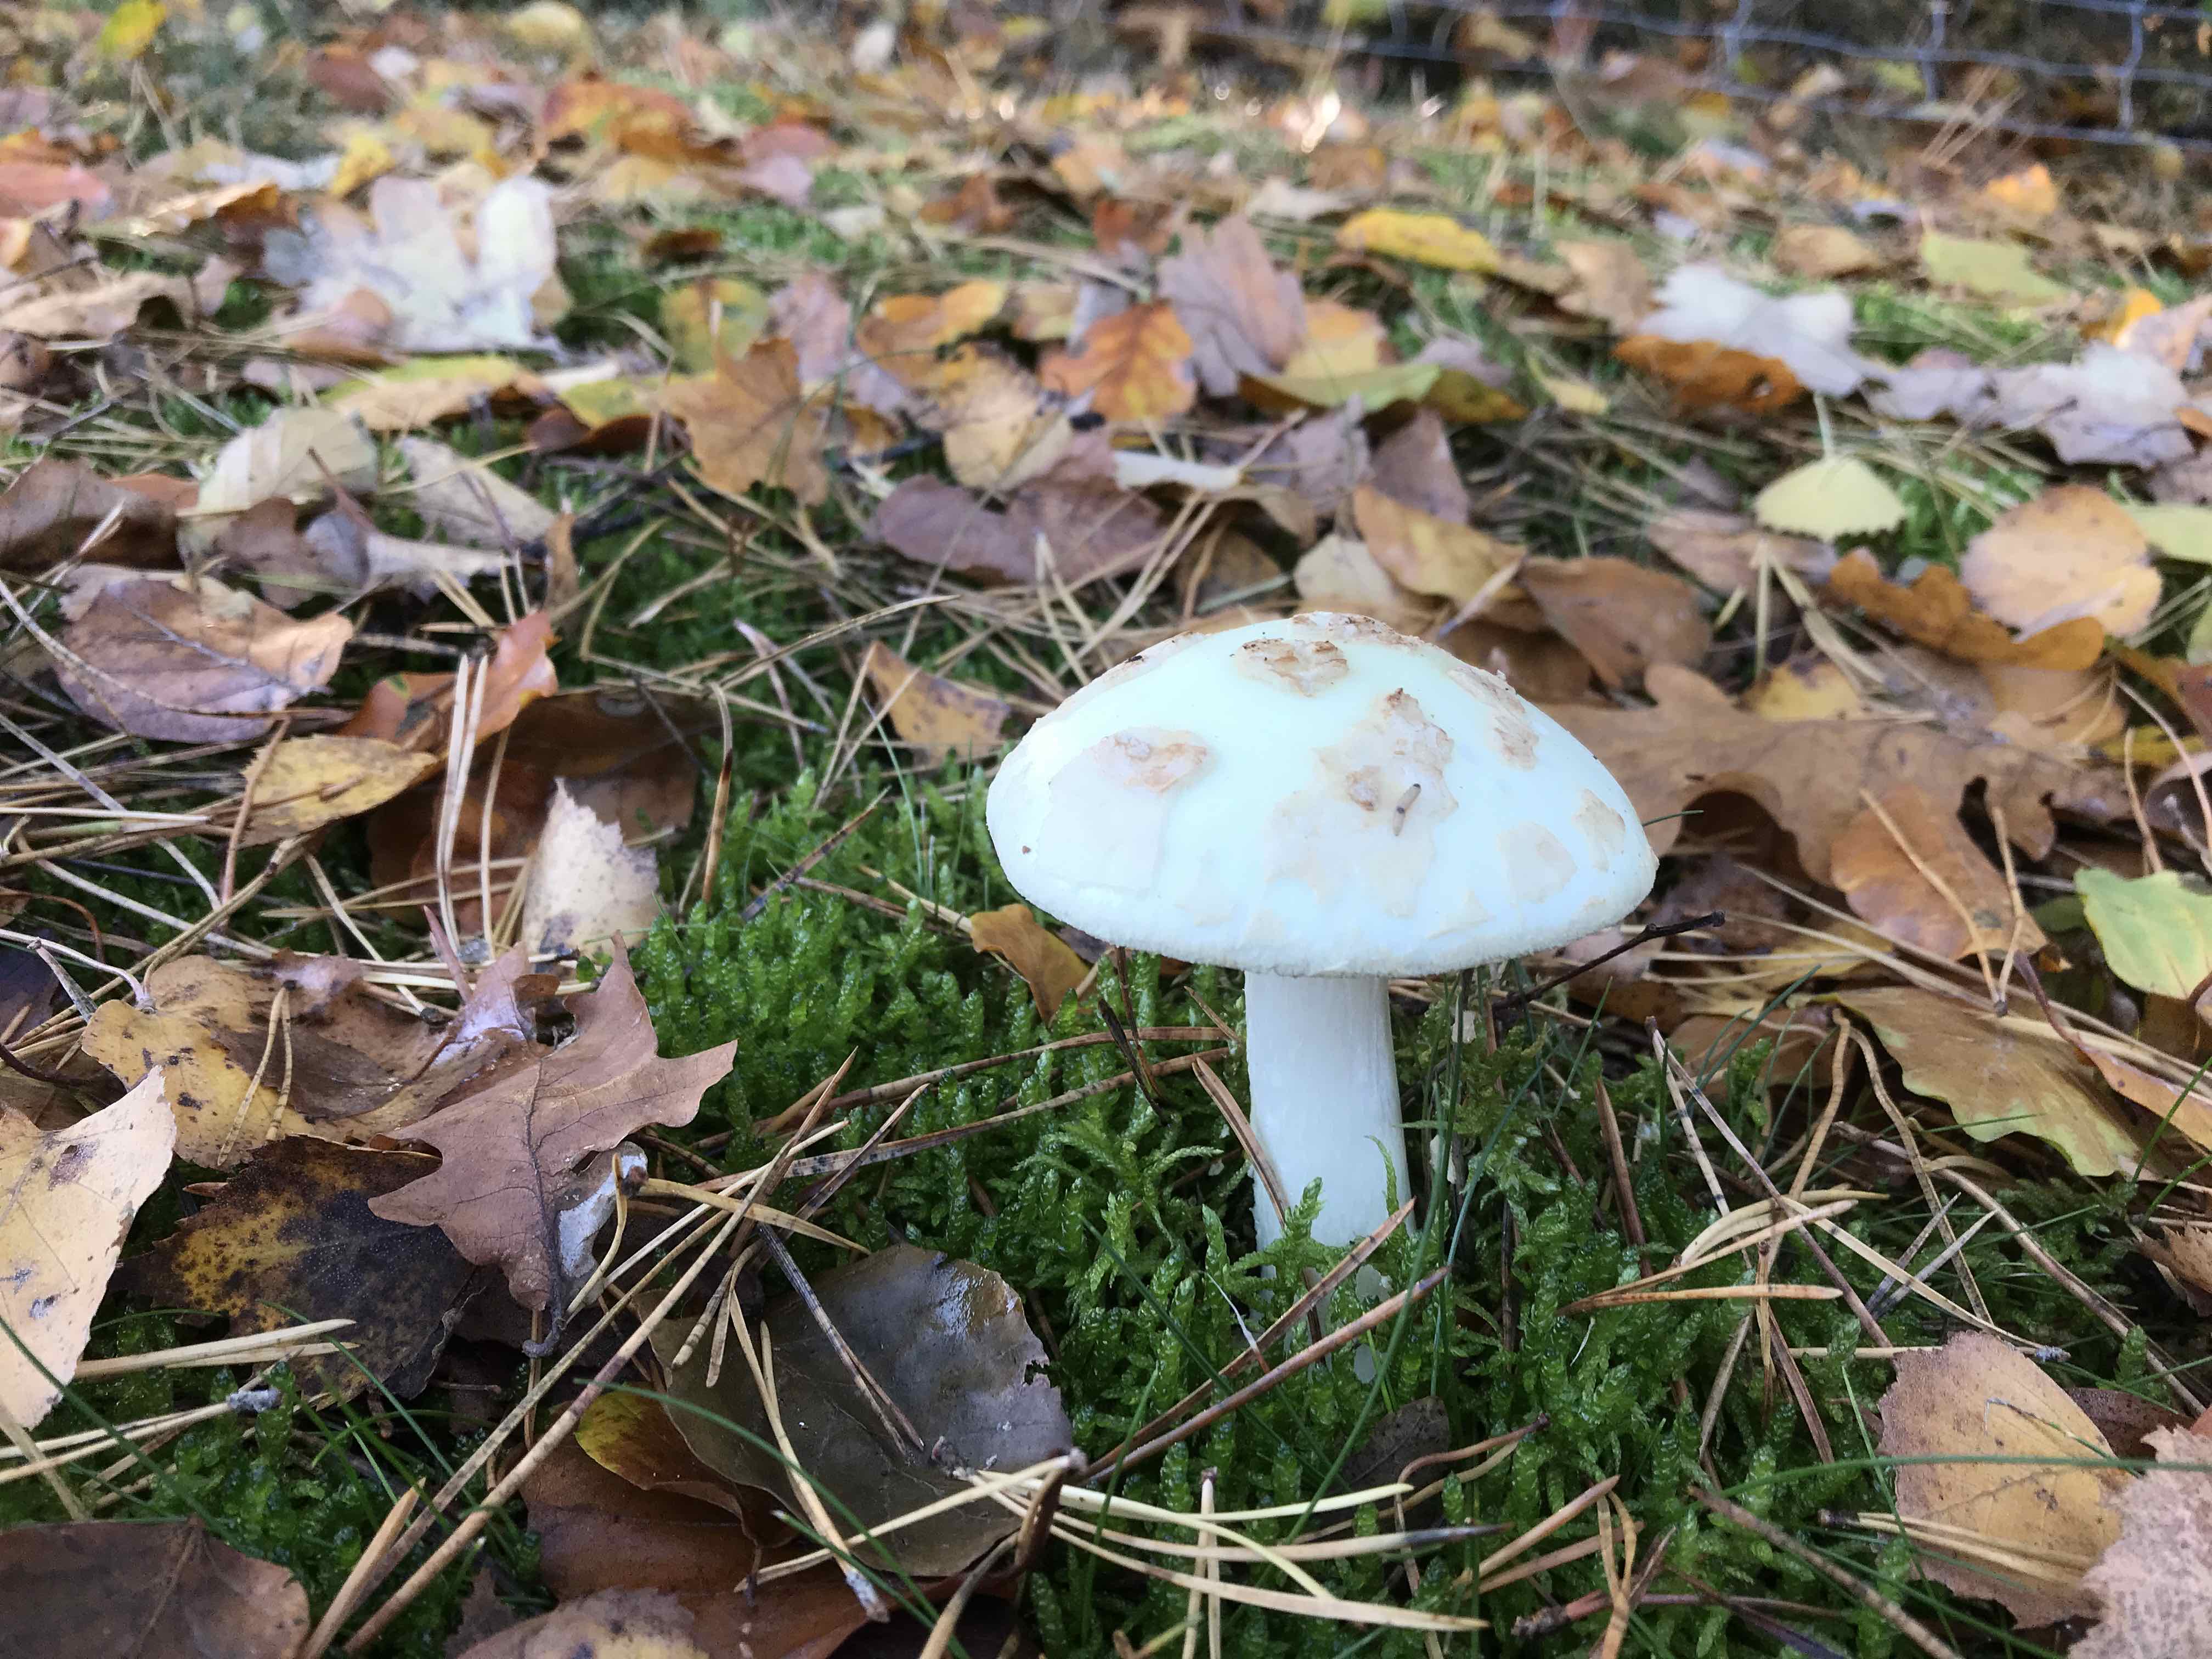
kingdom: Fungi
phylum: Basidiomycota
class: Agaricomycetes
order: Agaricales
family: Amanitaceae
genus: Amanita
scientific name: Amanita citrina
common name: kugleknoldet fluesvamp
